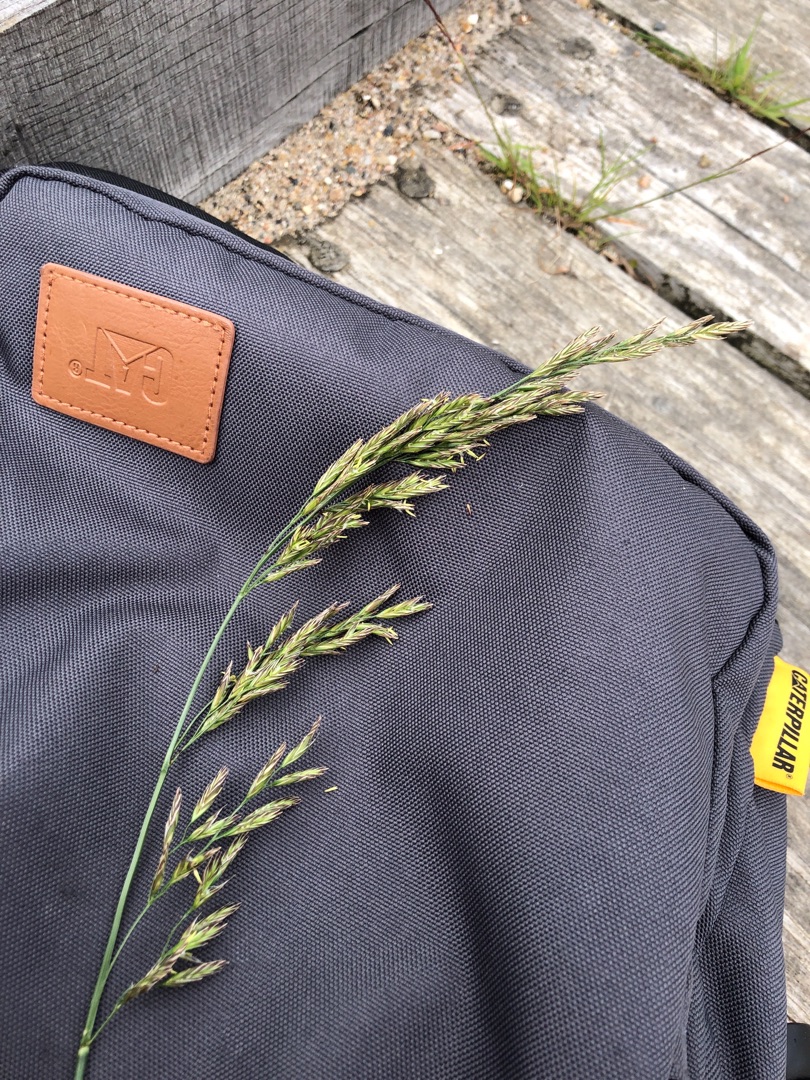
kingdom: Plantae
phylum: Tracheophyta
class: Liliopsida
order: Poales
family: Poaceae
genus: Lolium
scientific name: Lolium arundinaceum
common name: Strand-svingel
